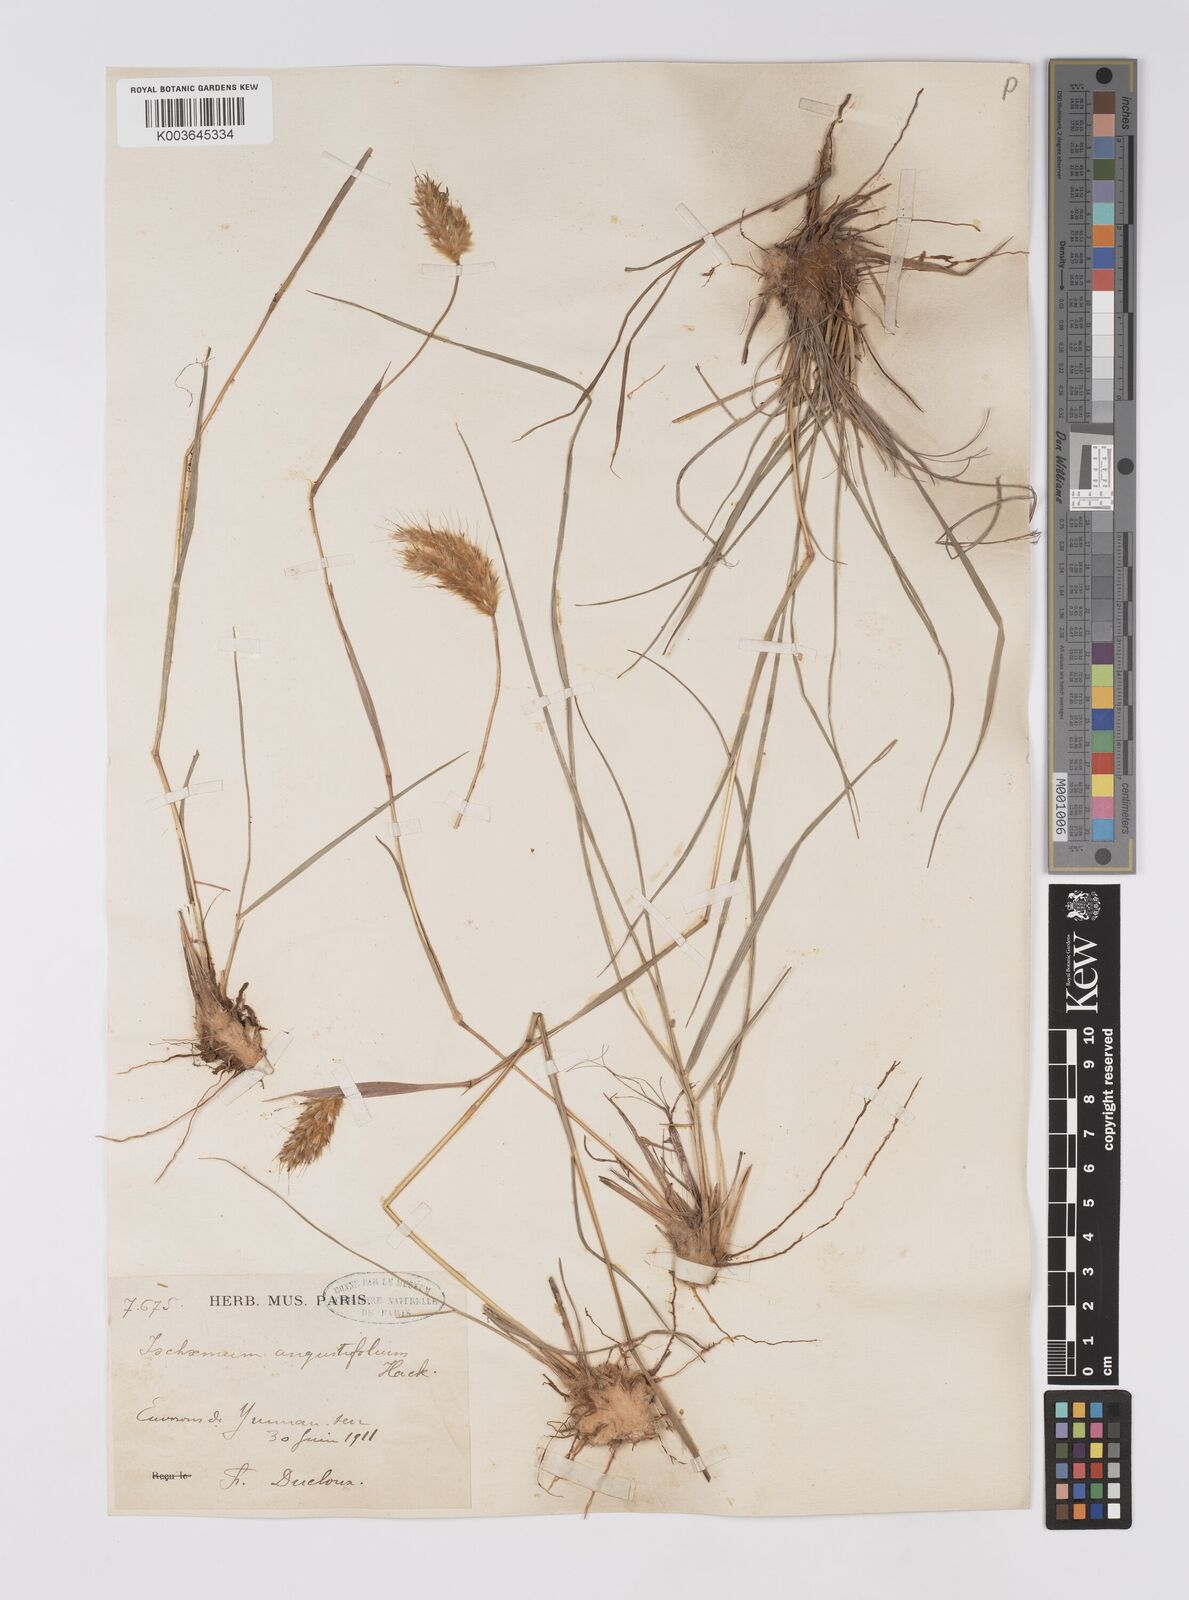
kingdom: Plantae
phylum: Tracheophyta
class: Liliopsida
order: Poales
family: Poaceae
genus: Eulaliopsis
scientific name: Eulaliopsis binata
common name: Baib grass
